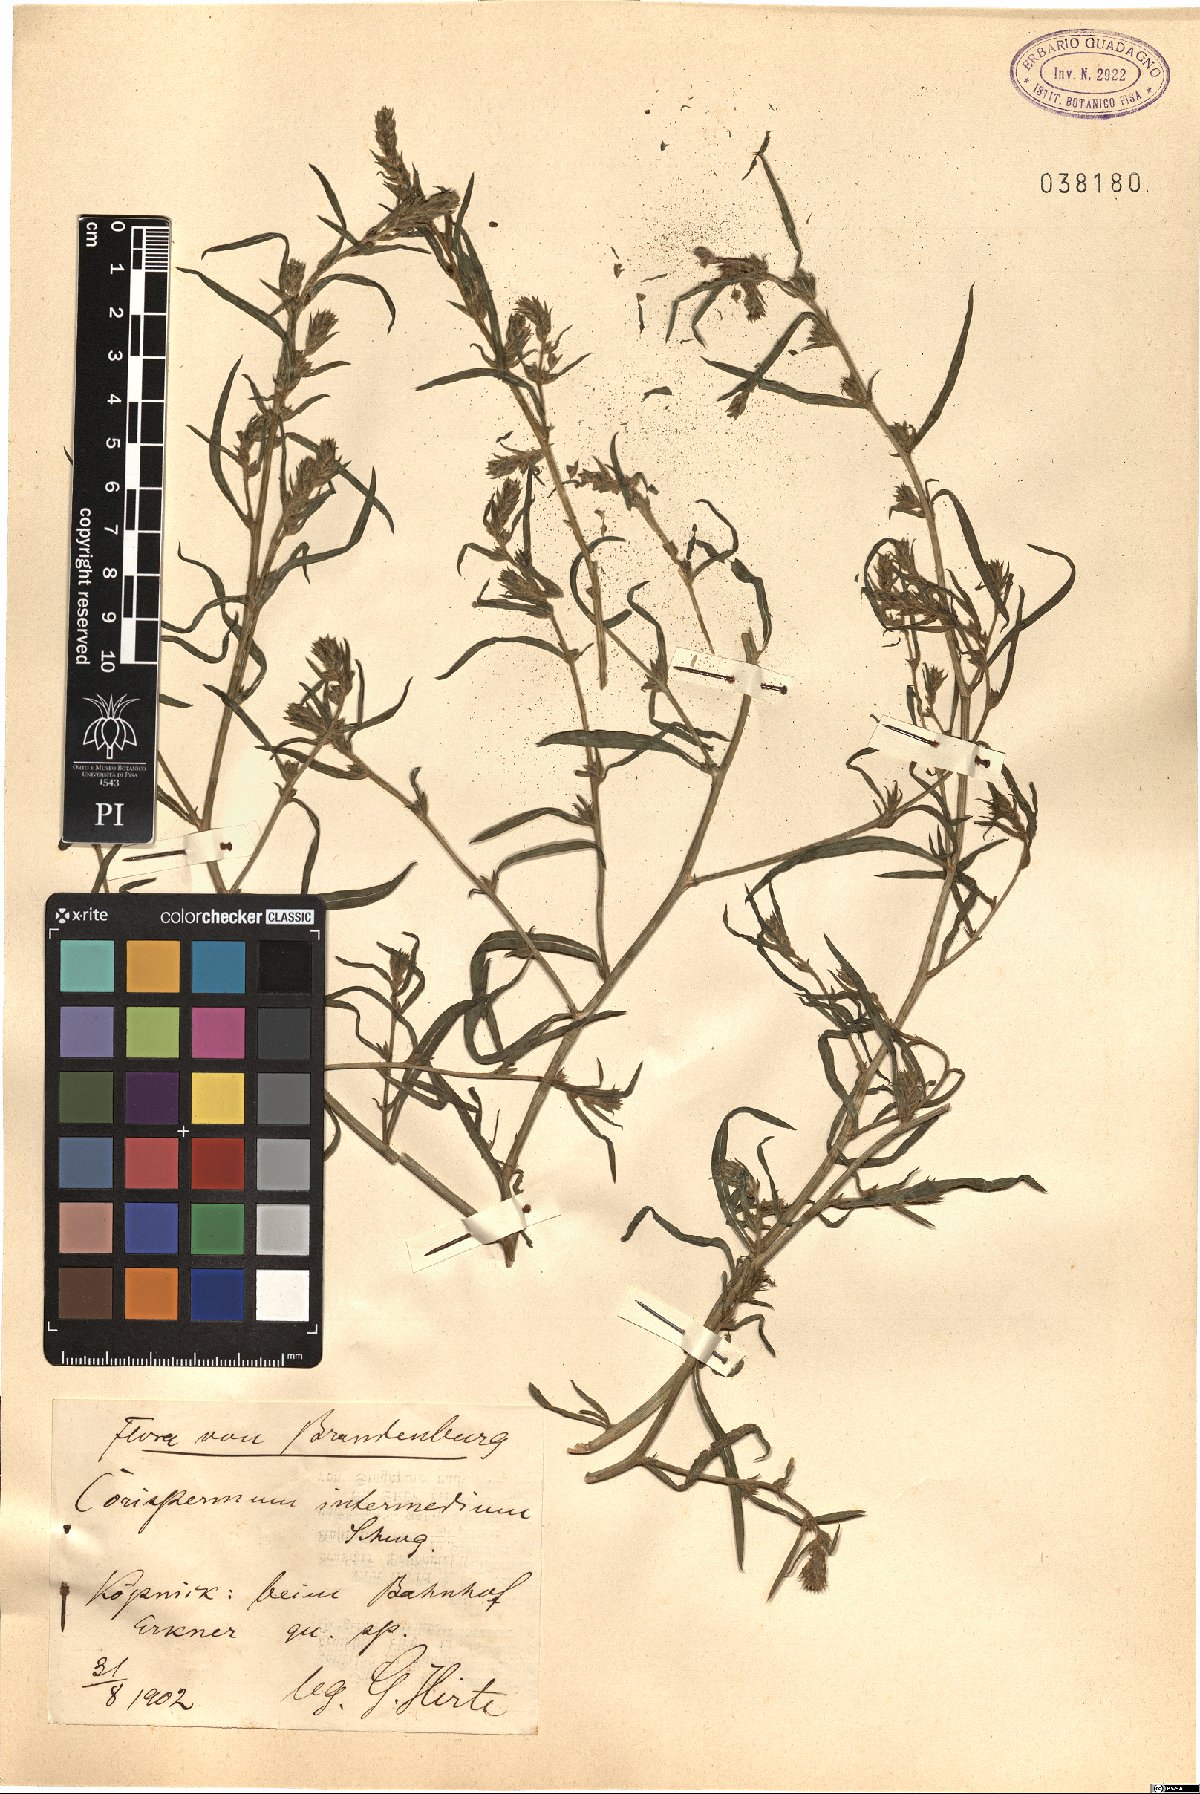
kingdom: Plantae
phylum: Tracheophyta
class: Magnoliopsida
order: Caryophyllales
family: Amaranthaceae
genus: Corispermum
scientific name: Corispermum intermedium
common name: Hyssop-leaved tickseed
